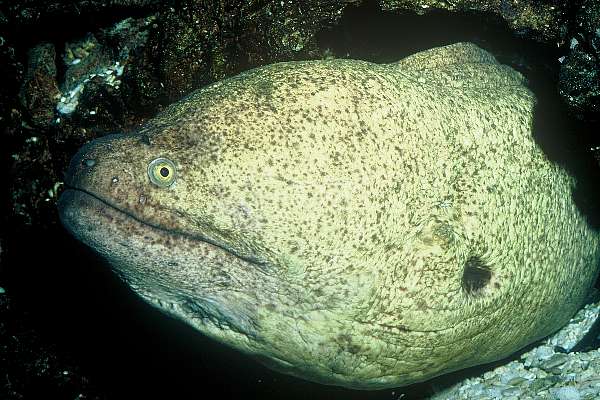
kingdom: Animalia
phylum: Chordata
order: Anguilliformes
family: Muraenidae
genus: Gymnothorax
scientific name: Gymnothorax flavimarginatus
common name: Yellow-edged moray
